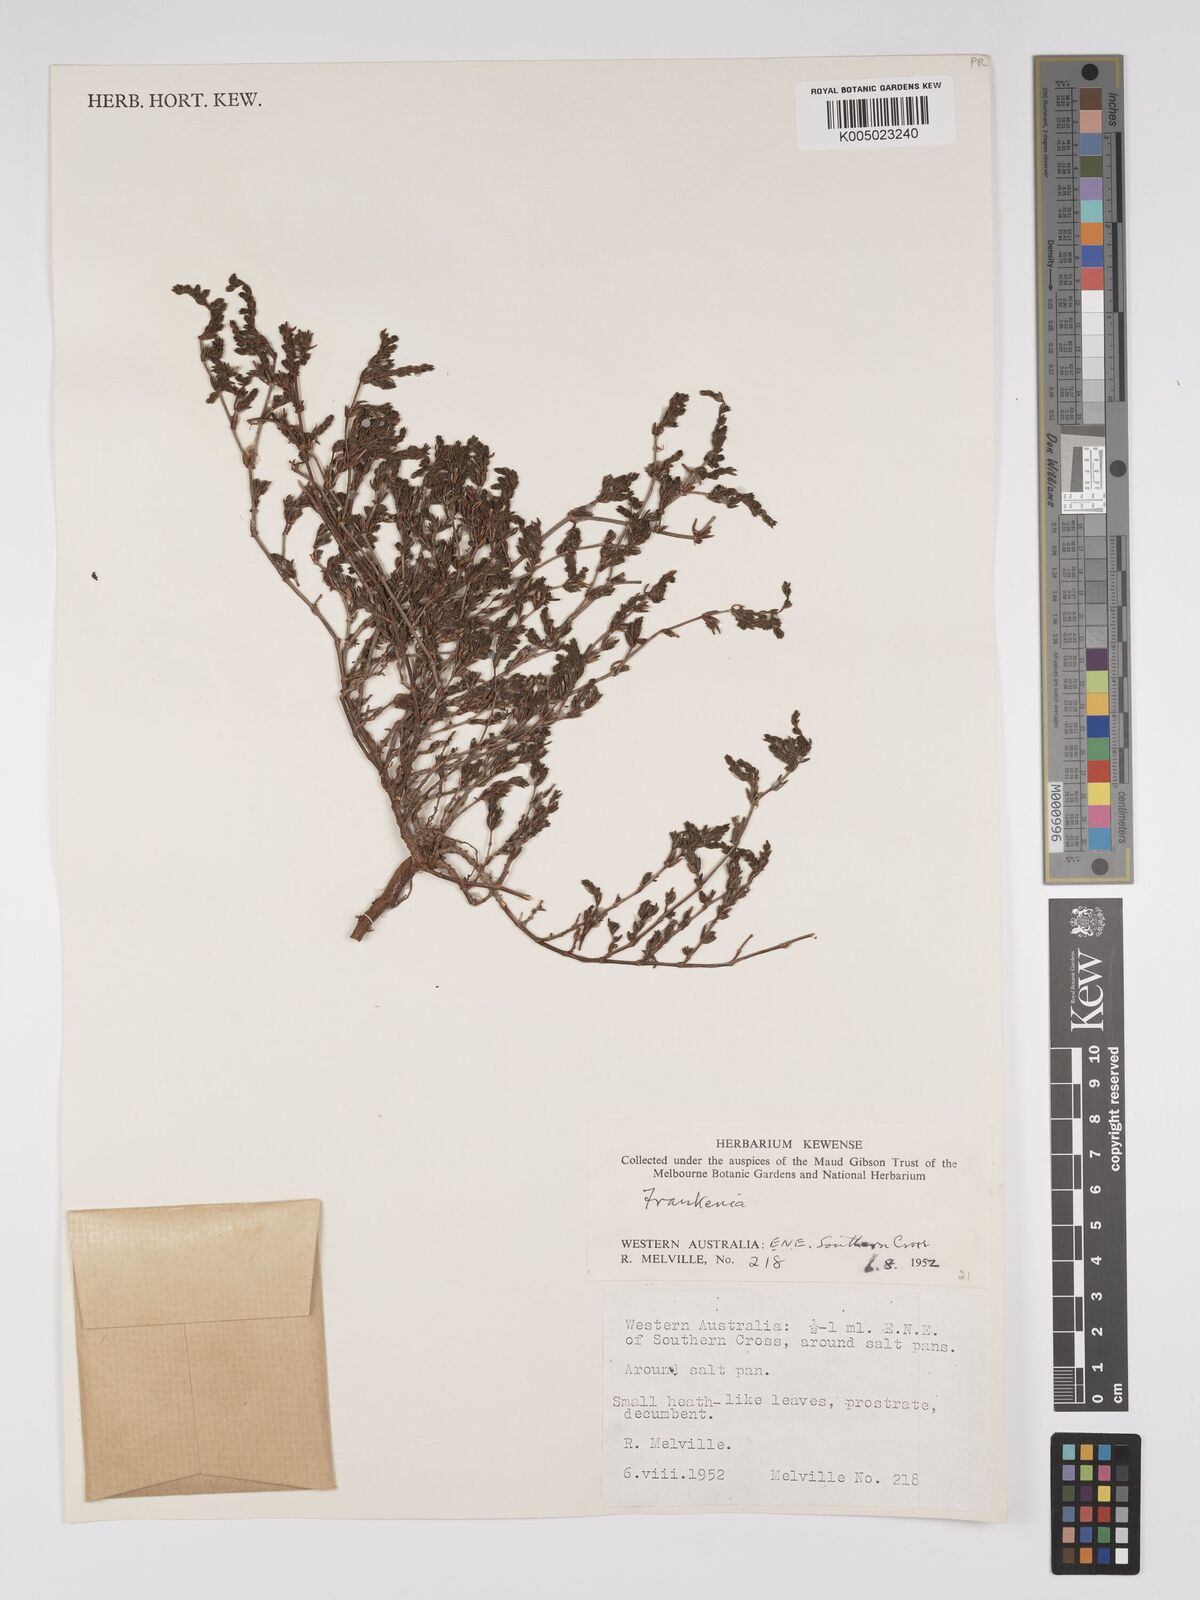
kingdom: Plantae
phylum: Tracheophyta
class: Magnoliopsida
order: Caryophyllales
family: Frankeniaceae
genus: Frankenia
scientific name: Frankenia
